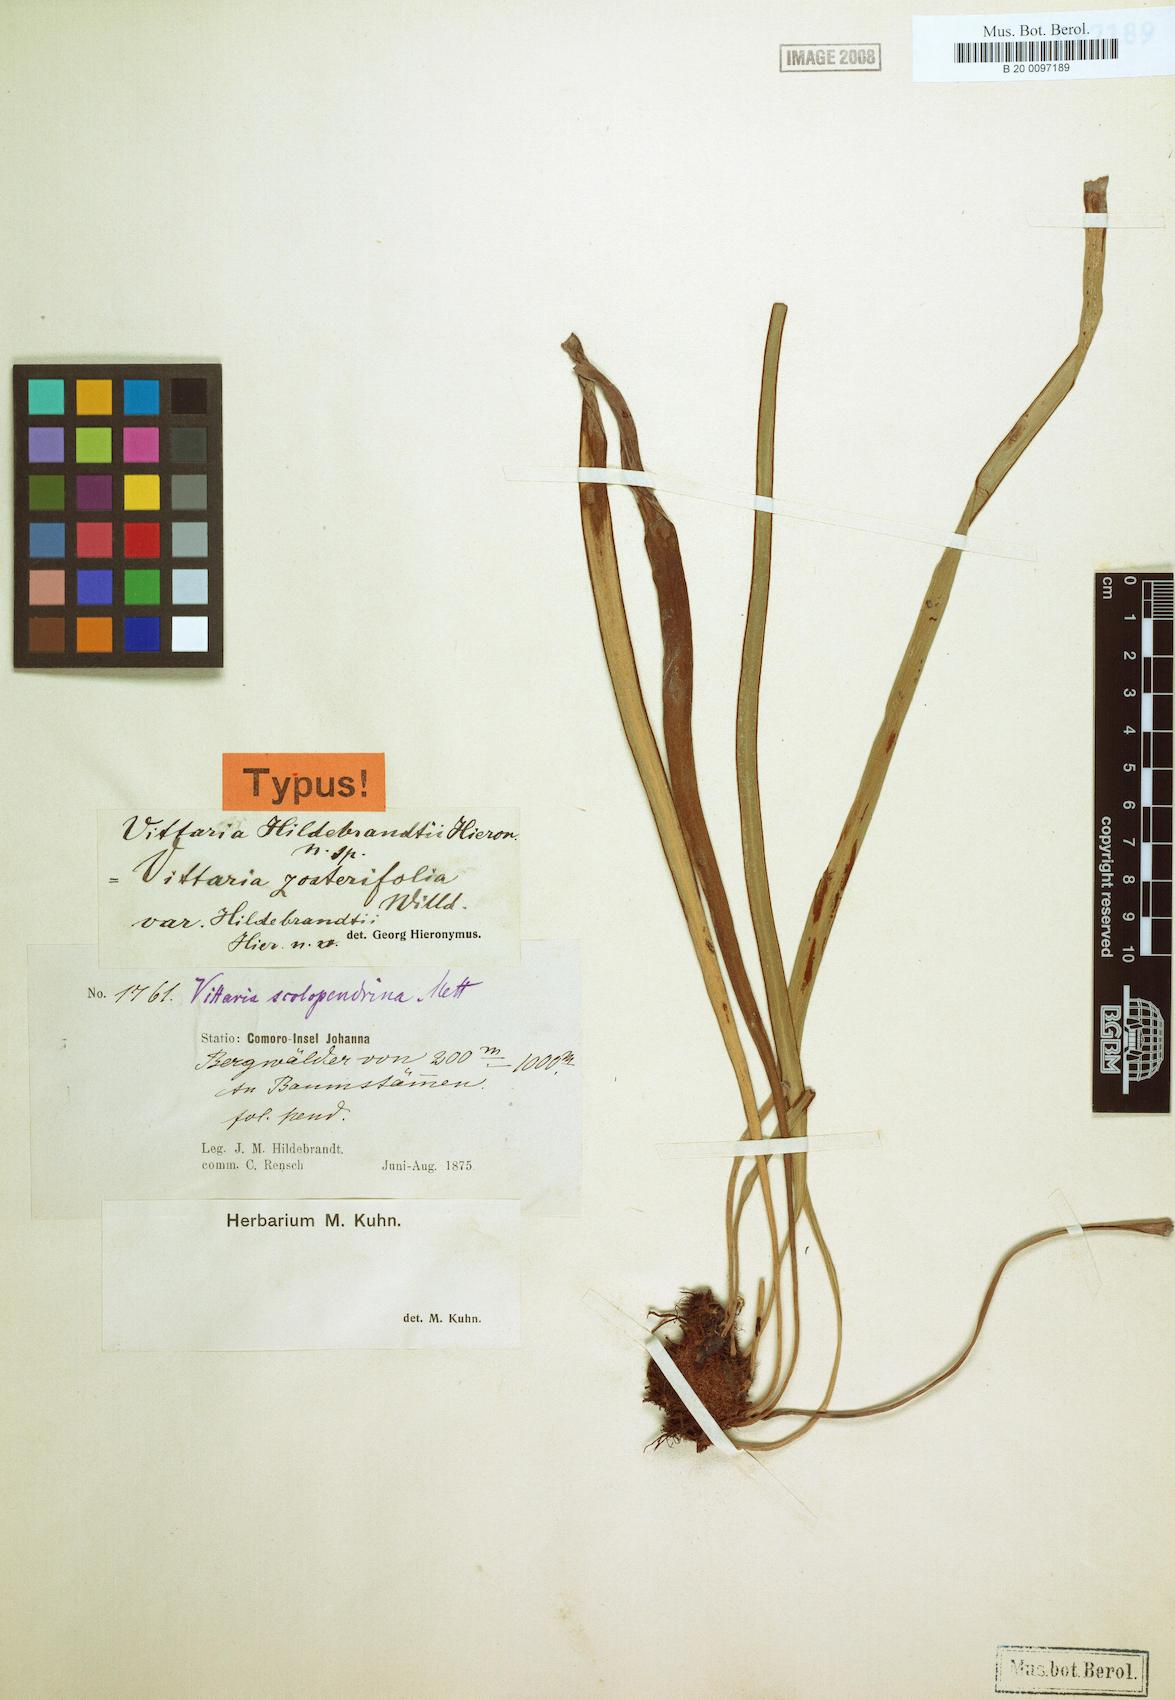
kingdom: Plantae
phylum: Tracheophyta
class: Polypodiopsida
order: Polypodiales
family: Pteridaceae
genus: Haplopteris
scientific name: Haplopteris elongata
